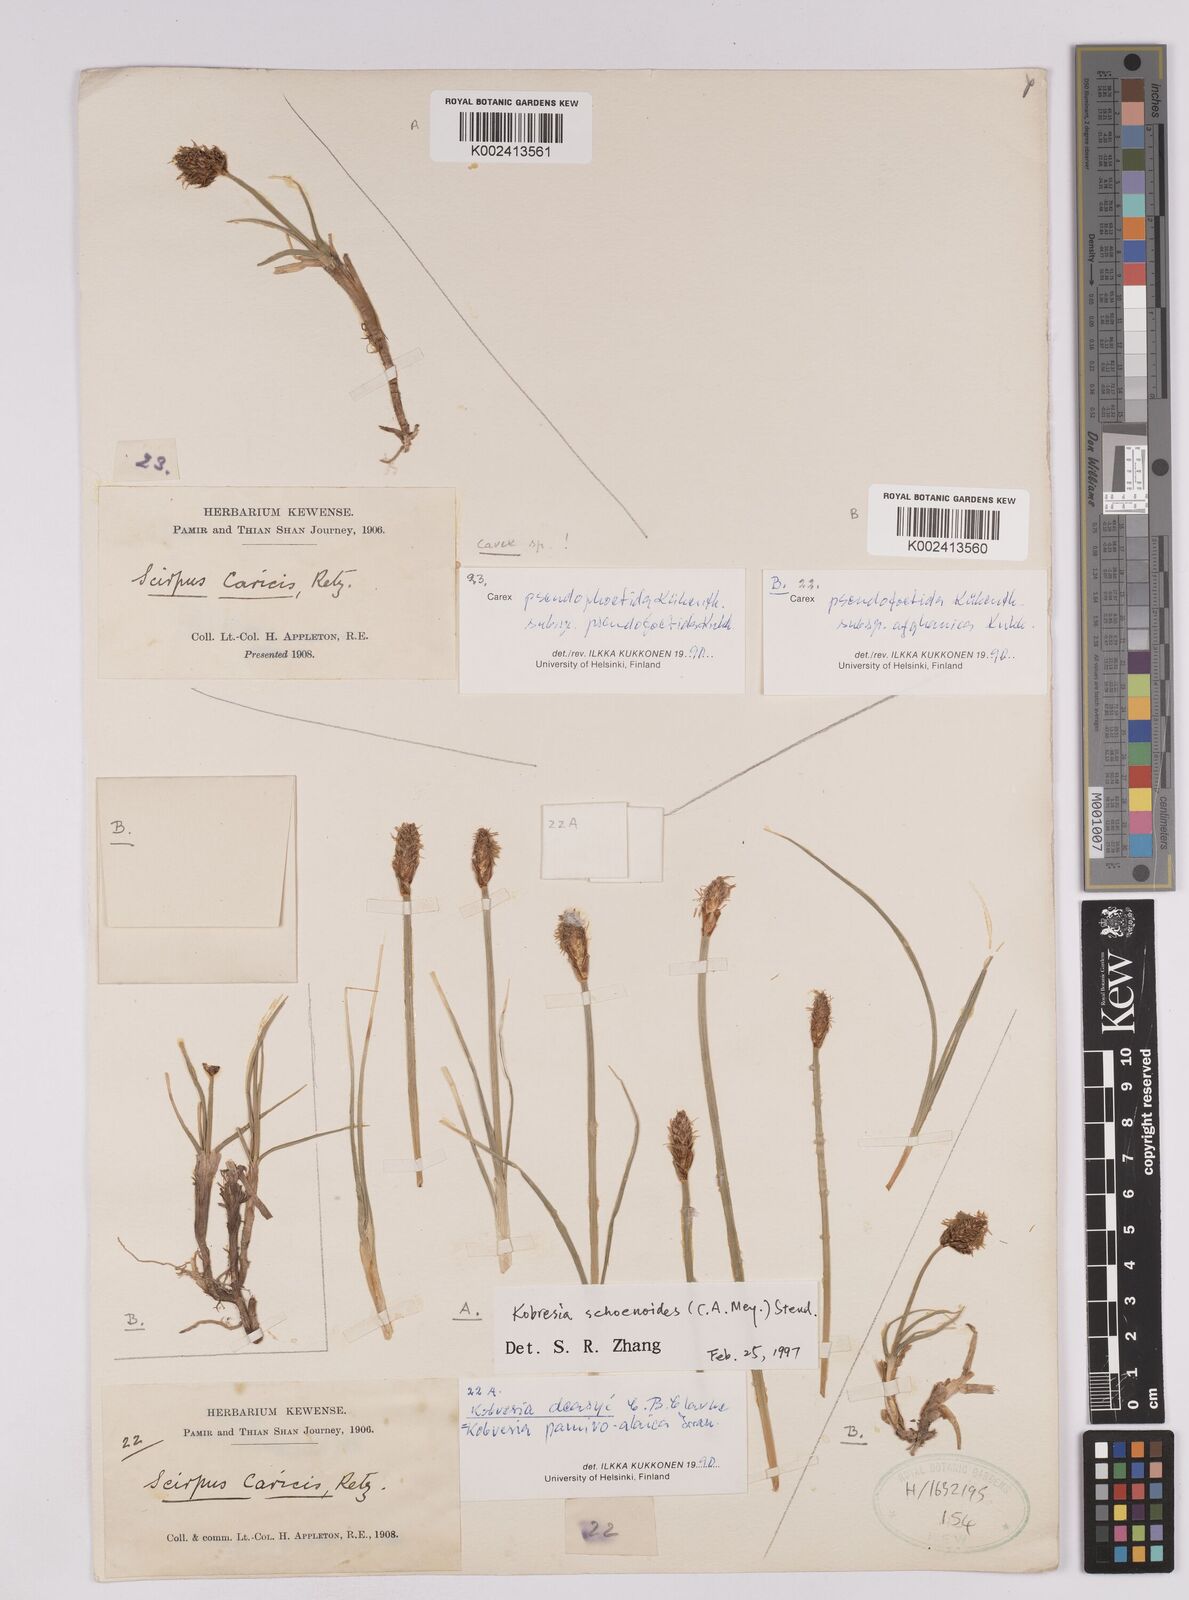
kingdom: Plantae
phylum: Tracheophyta
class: Liliopsida
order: Poales
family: Cyperaceae
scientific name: Cyperaceae
